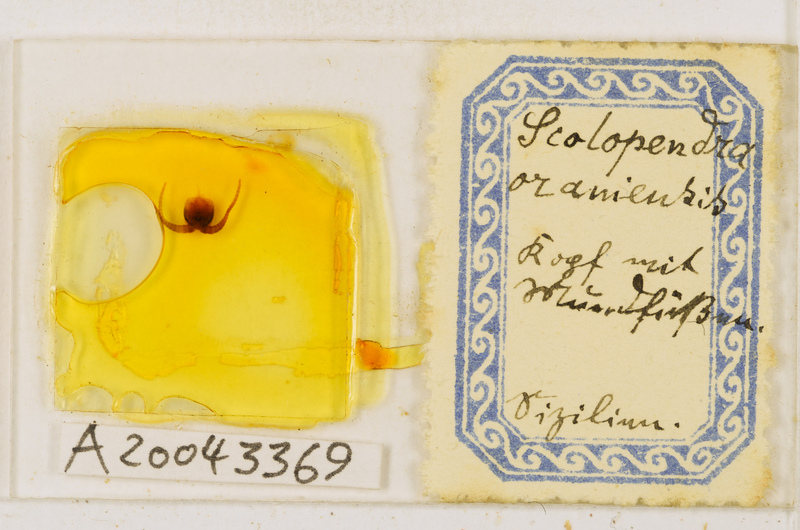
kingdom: Animalia
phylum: Arthropoda
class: Chilopoda
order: Scolopendromorpha
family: Scolopendridae
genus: Scolopendra
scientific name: Scolopendra oraniensis
